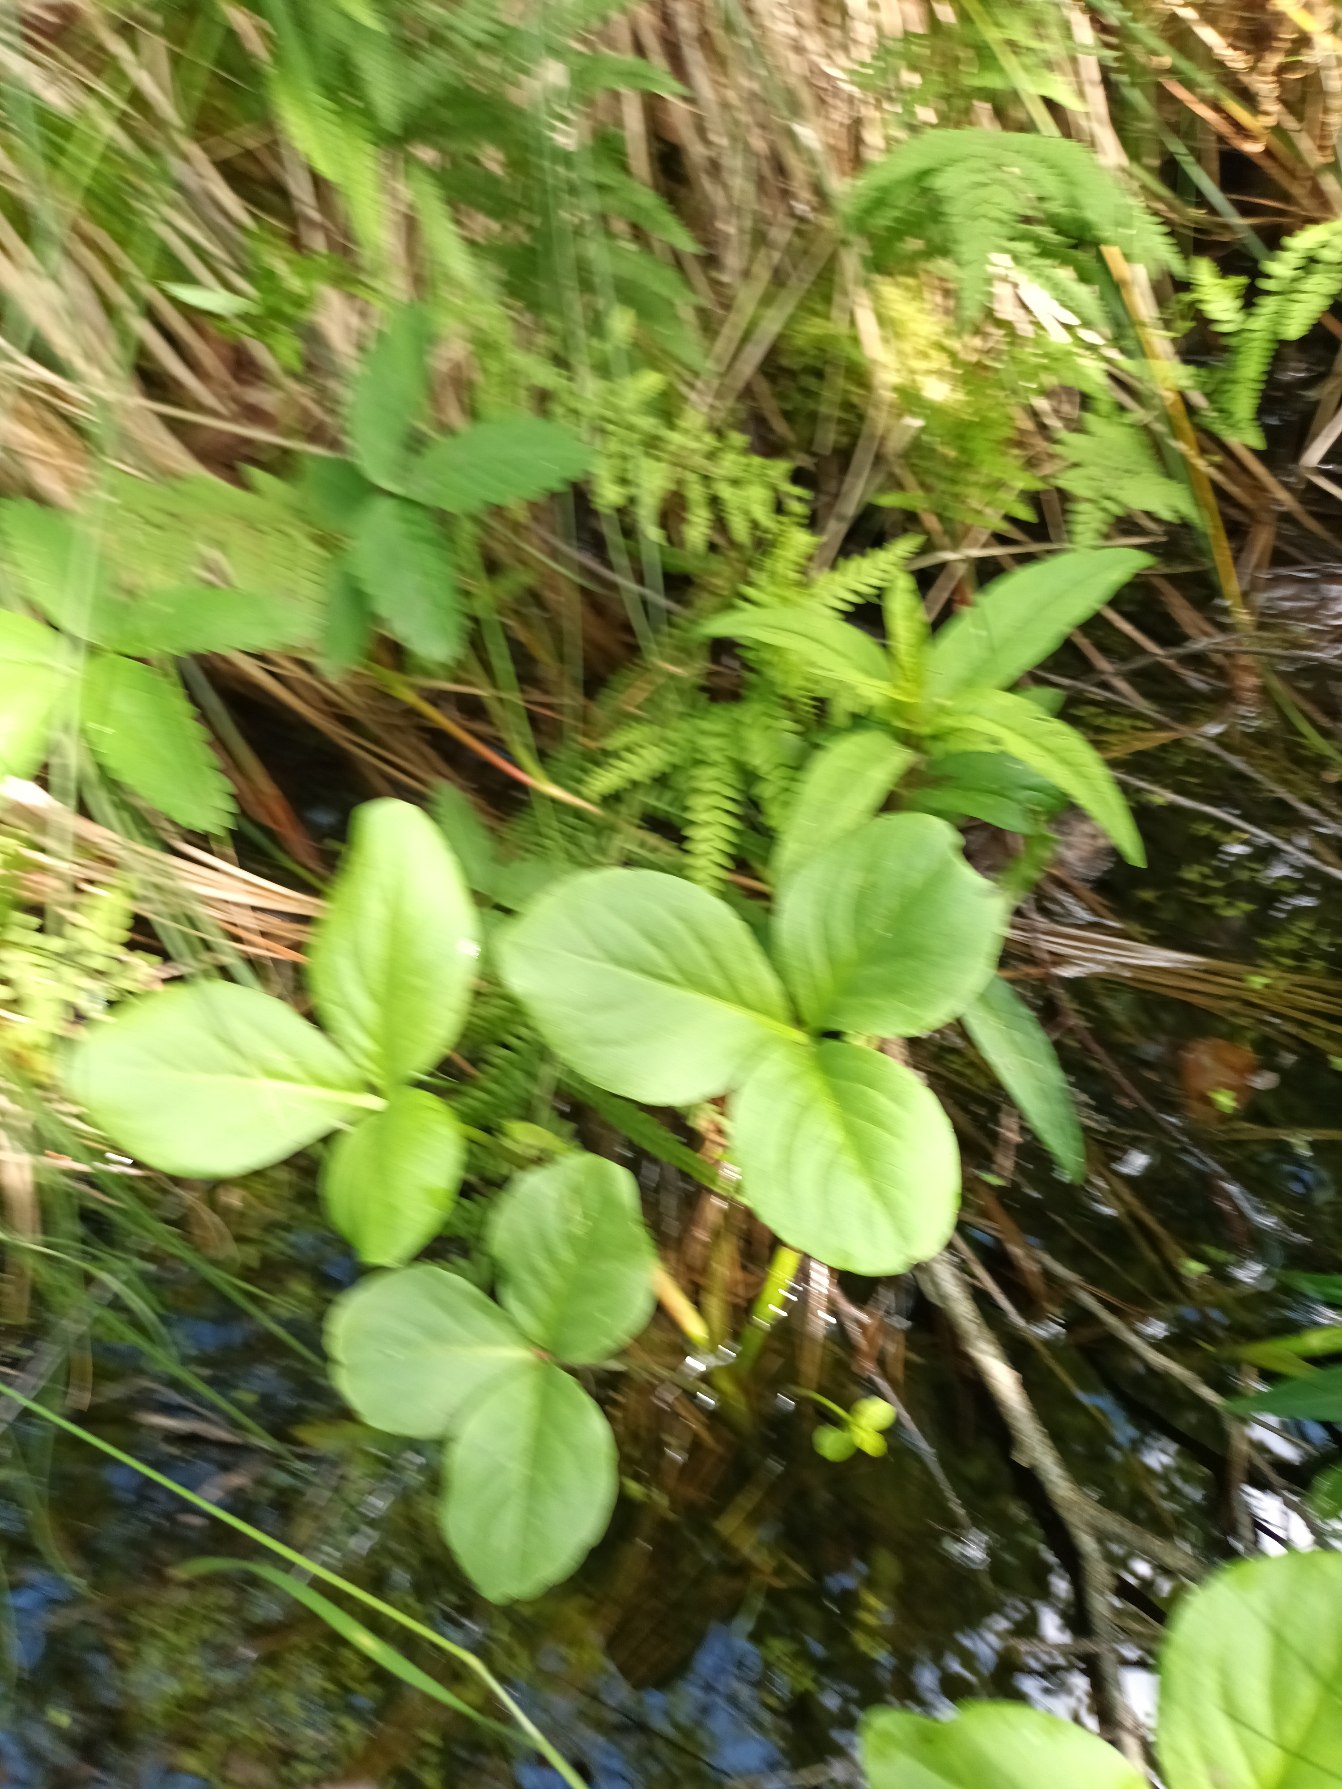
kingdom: Plantae
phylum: Tracheophyta
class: Magnoliopsida
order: Asterales
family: Menyanthaceae
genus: Menyanthes
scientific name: Menyanthes trifoliata
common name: Bukkeblad
